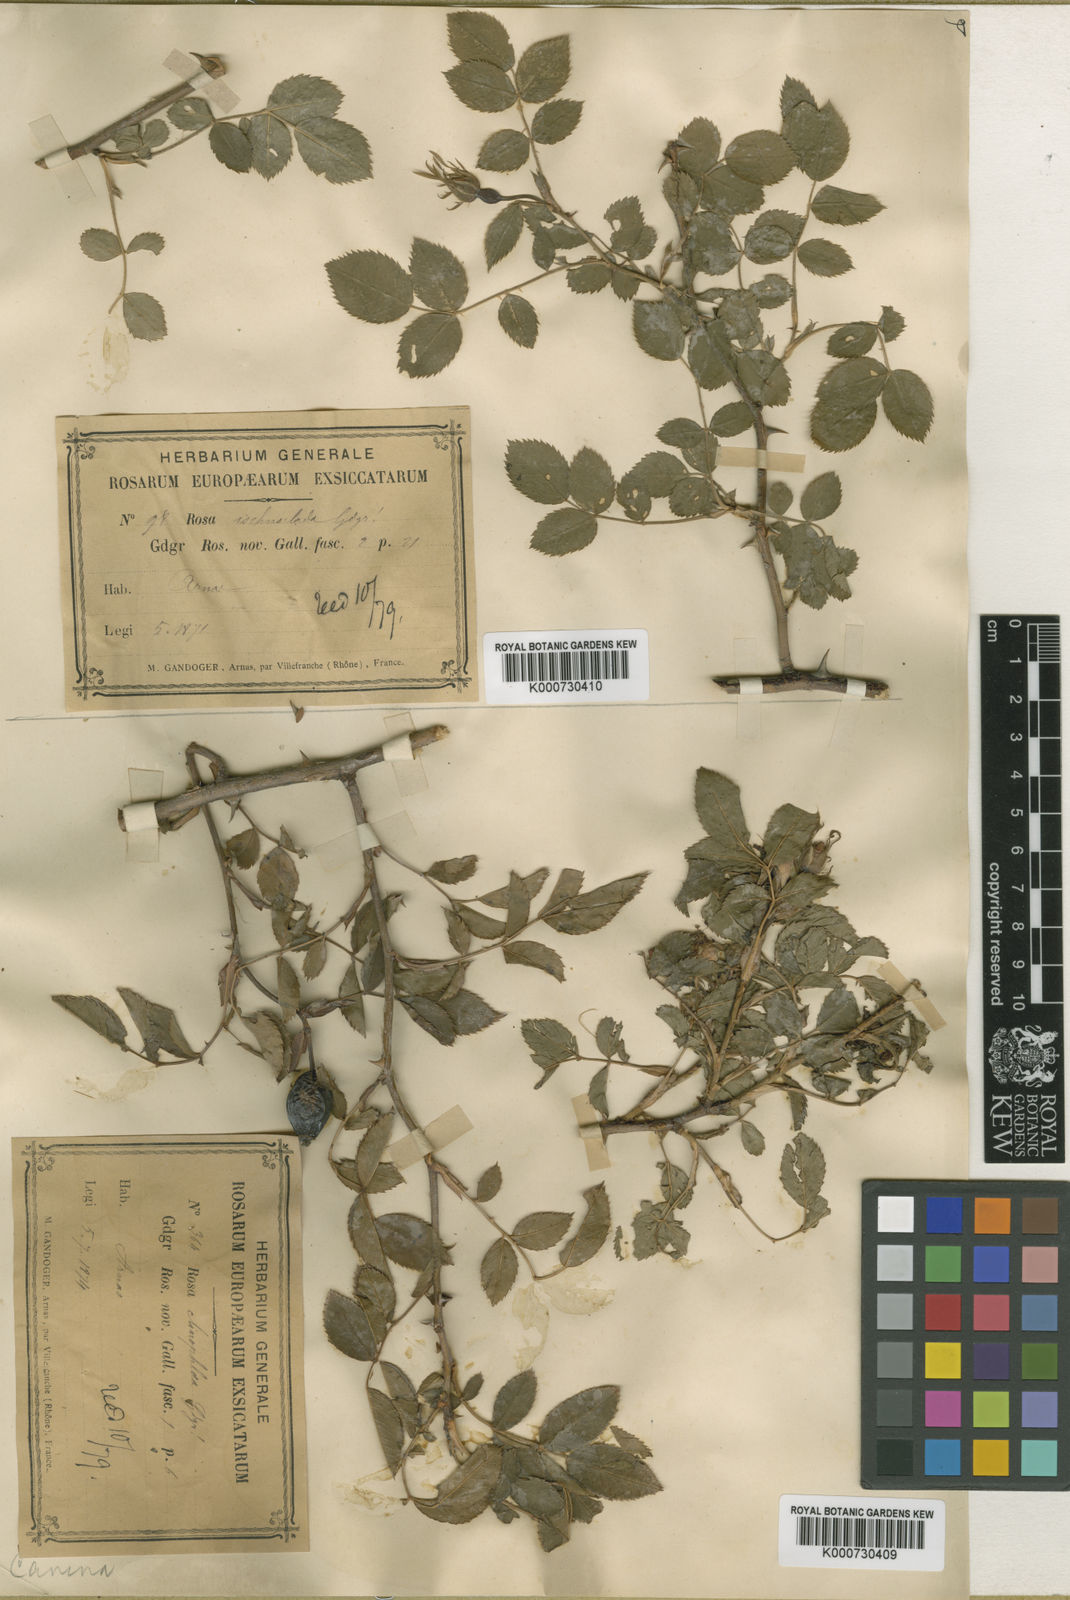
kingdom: Plantae
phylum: Tracheophyta
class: Magnoliopsida
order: Rosales
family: Rosaceae
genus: Rosa
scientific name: Rosa canina
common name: Dog rose
